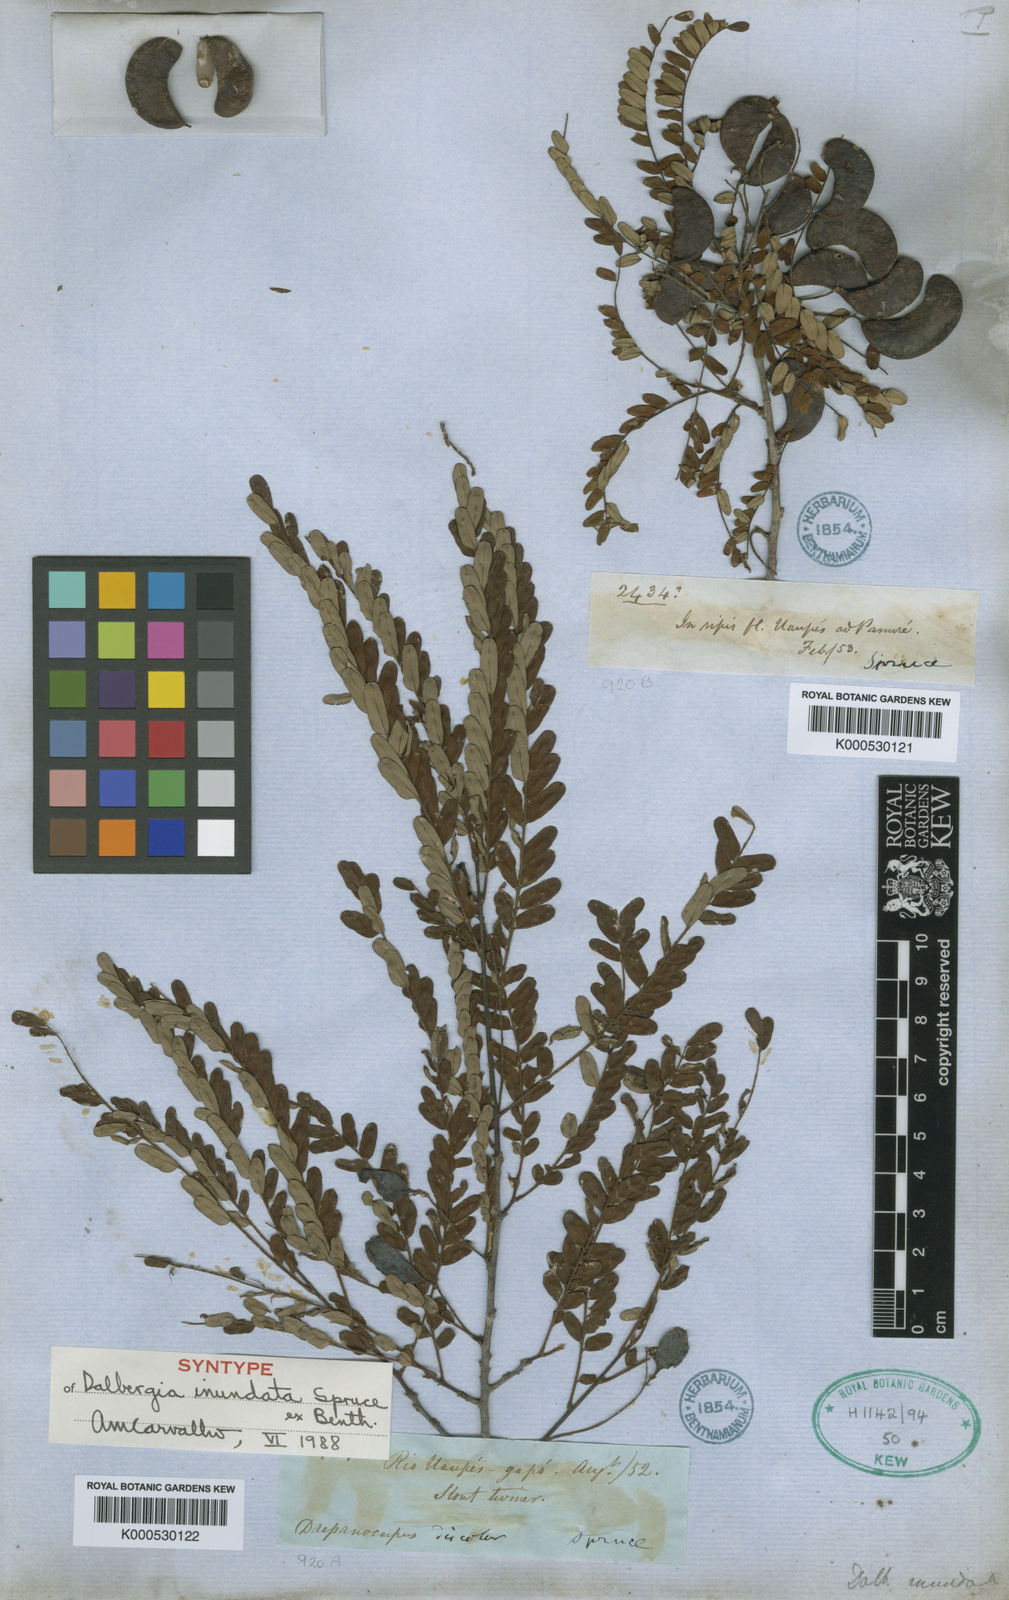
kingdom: Plantae
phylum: Tracheophyta
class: Magnoliopsida
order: Fabales
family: Fabaceae
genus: Dalbergia
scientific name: Dalbergia inundata
